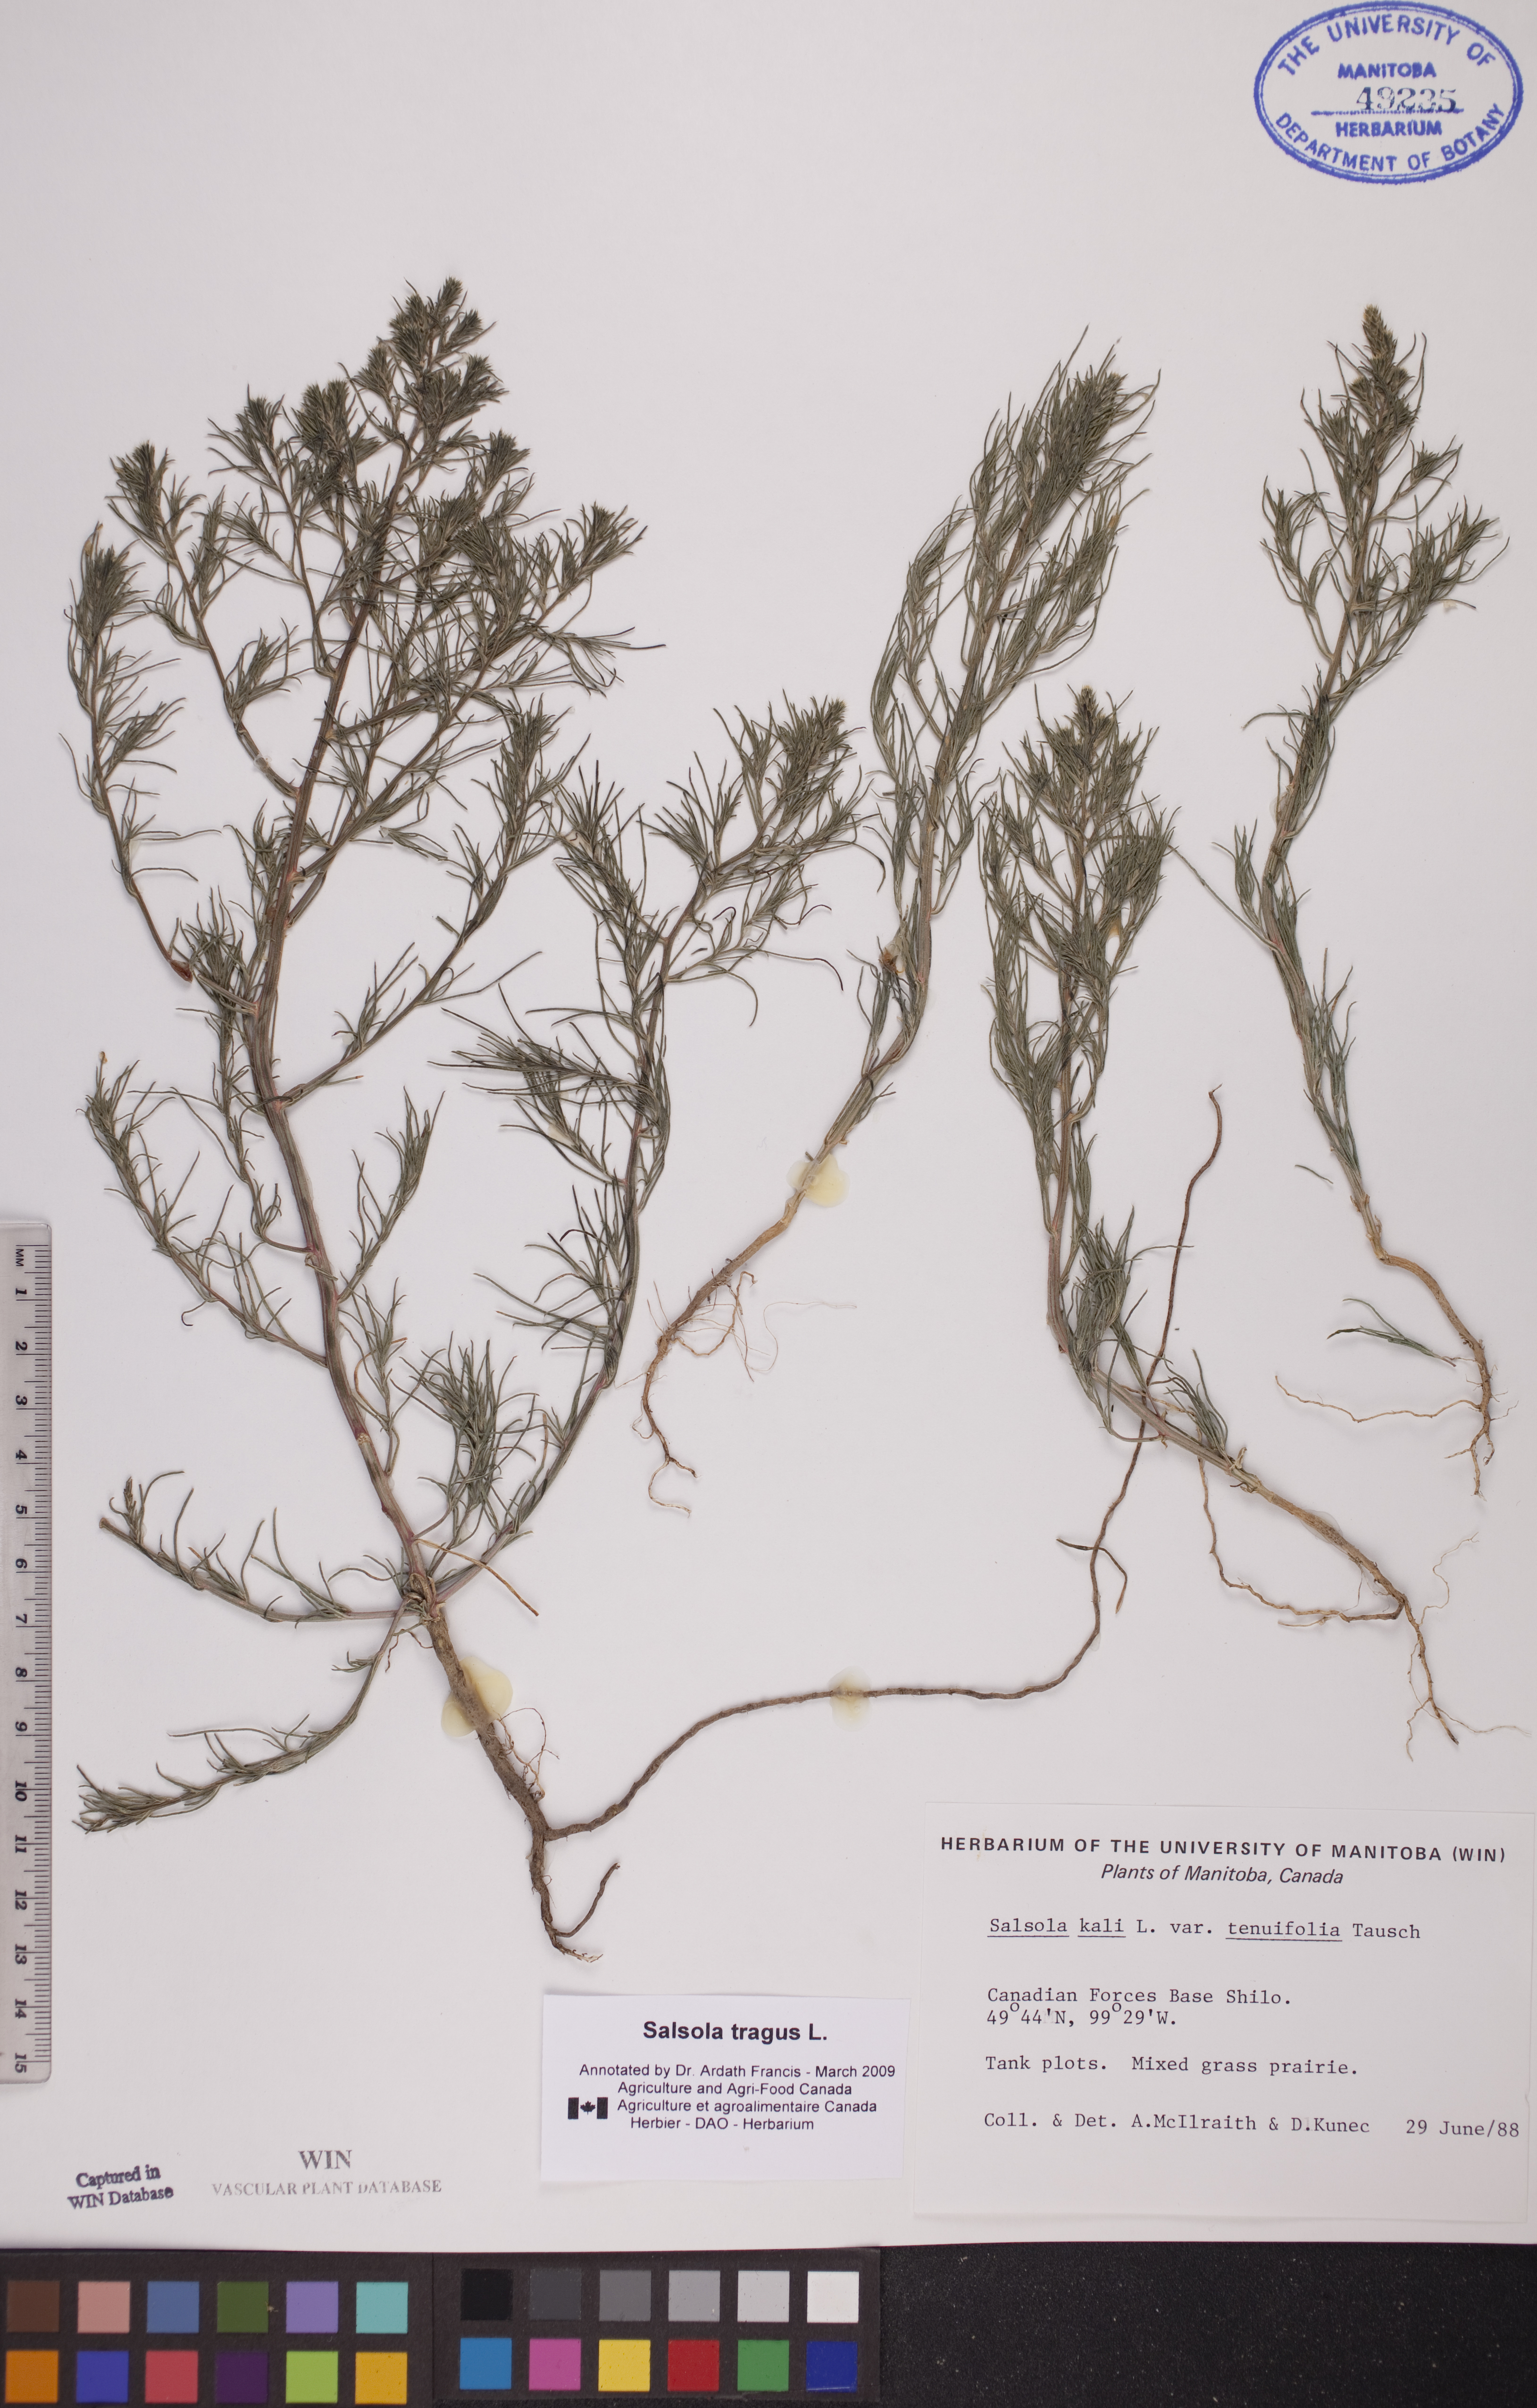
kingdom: Plantae
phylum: Tracheophyta
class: Magnoliopsida
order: Caryophyllales
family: Amaranthaceae
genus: Salsola
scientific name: Salsola tragus
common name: Prickly russian thistle
